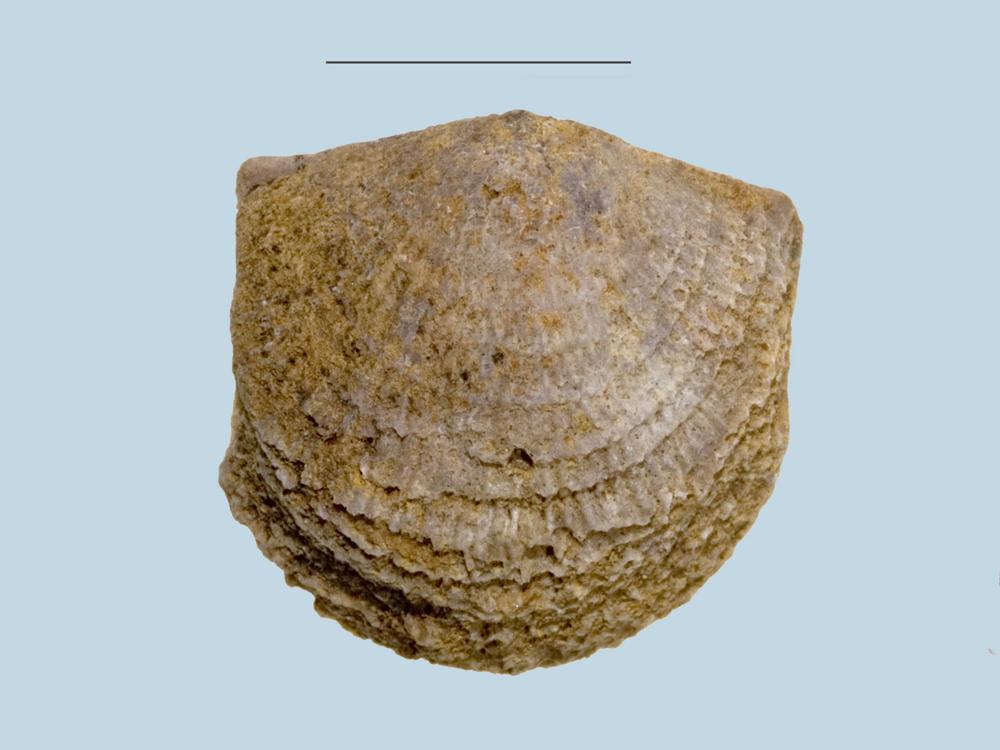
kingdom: Animalia
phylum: Brachiopoda
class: Rhynchonellata
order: Rhynchonellida
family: Camarotoechiidae
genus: Camarotoechia
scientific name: Camarotoechia
